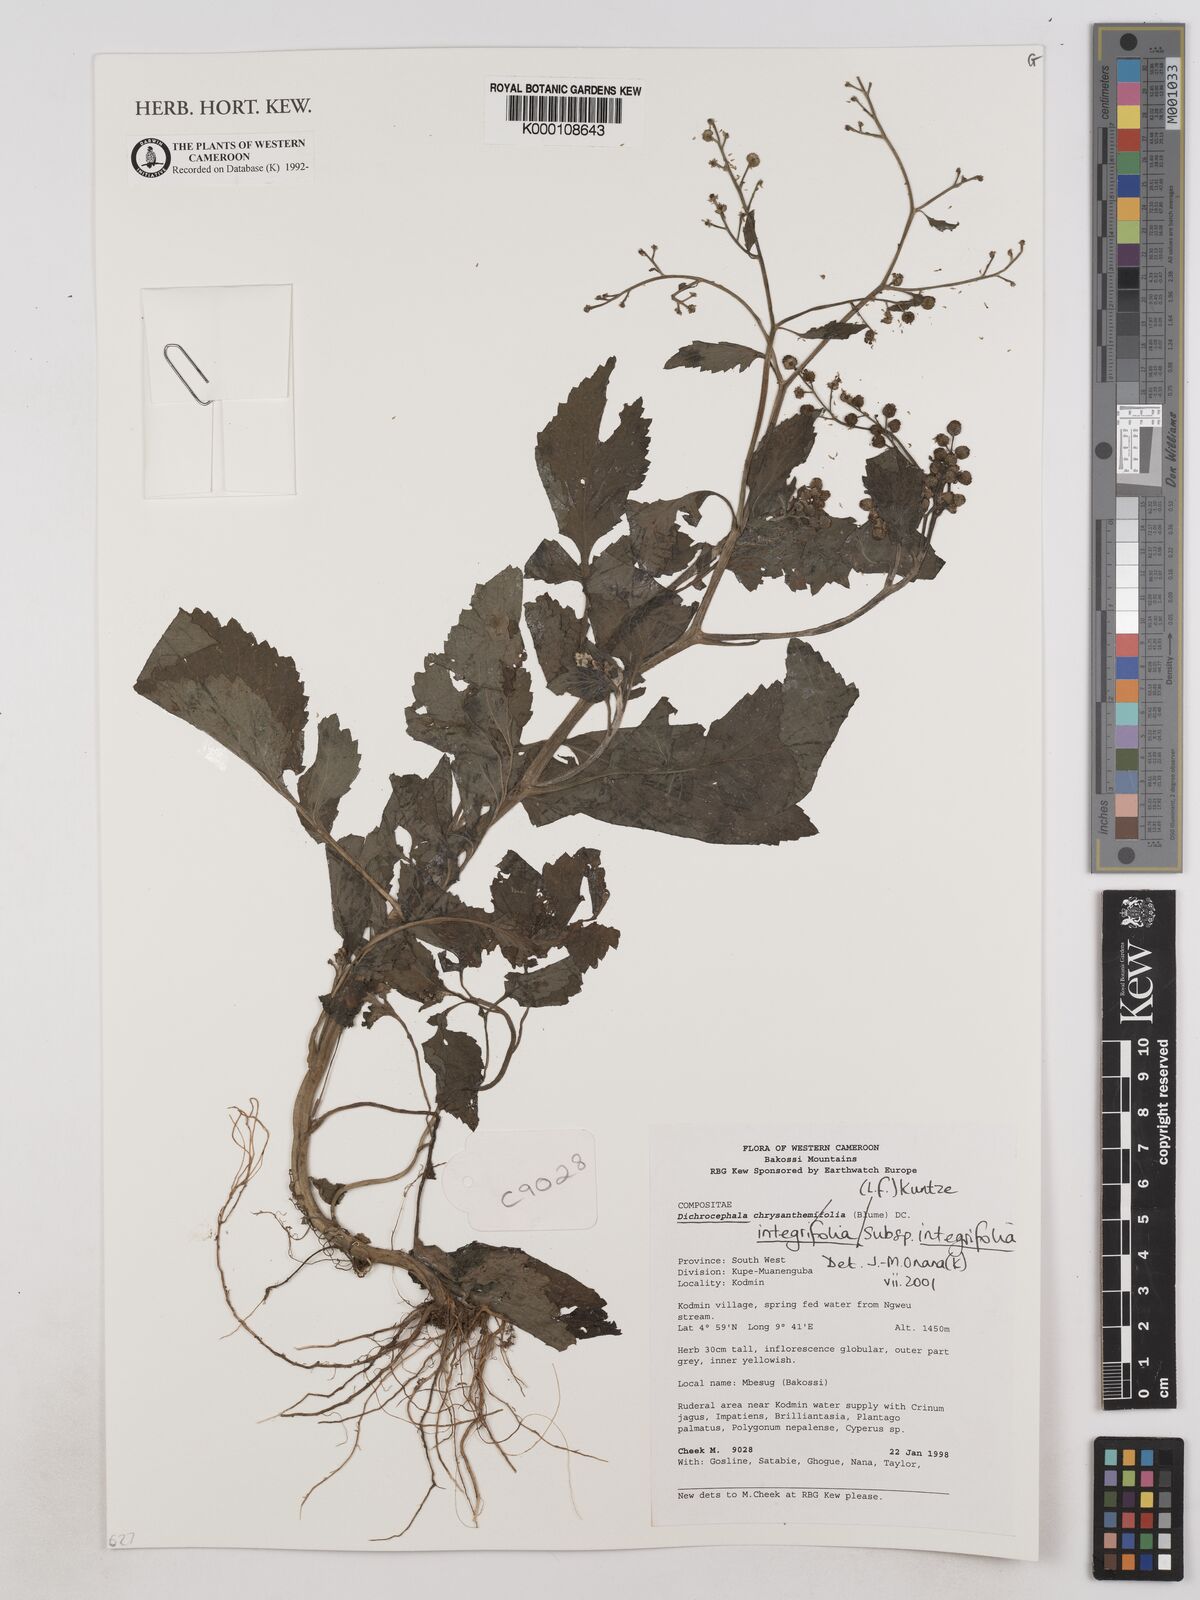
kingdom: Plantae
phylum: Tracheophyta
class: Magnoliopsida
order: Asterales
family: Asteraceae
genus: Dichrocephala
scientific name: Dichrocephala integrifolia
